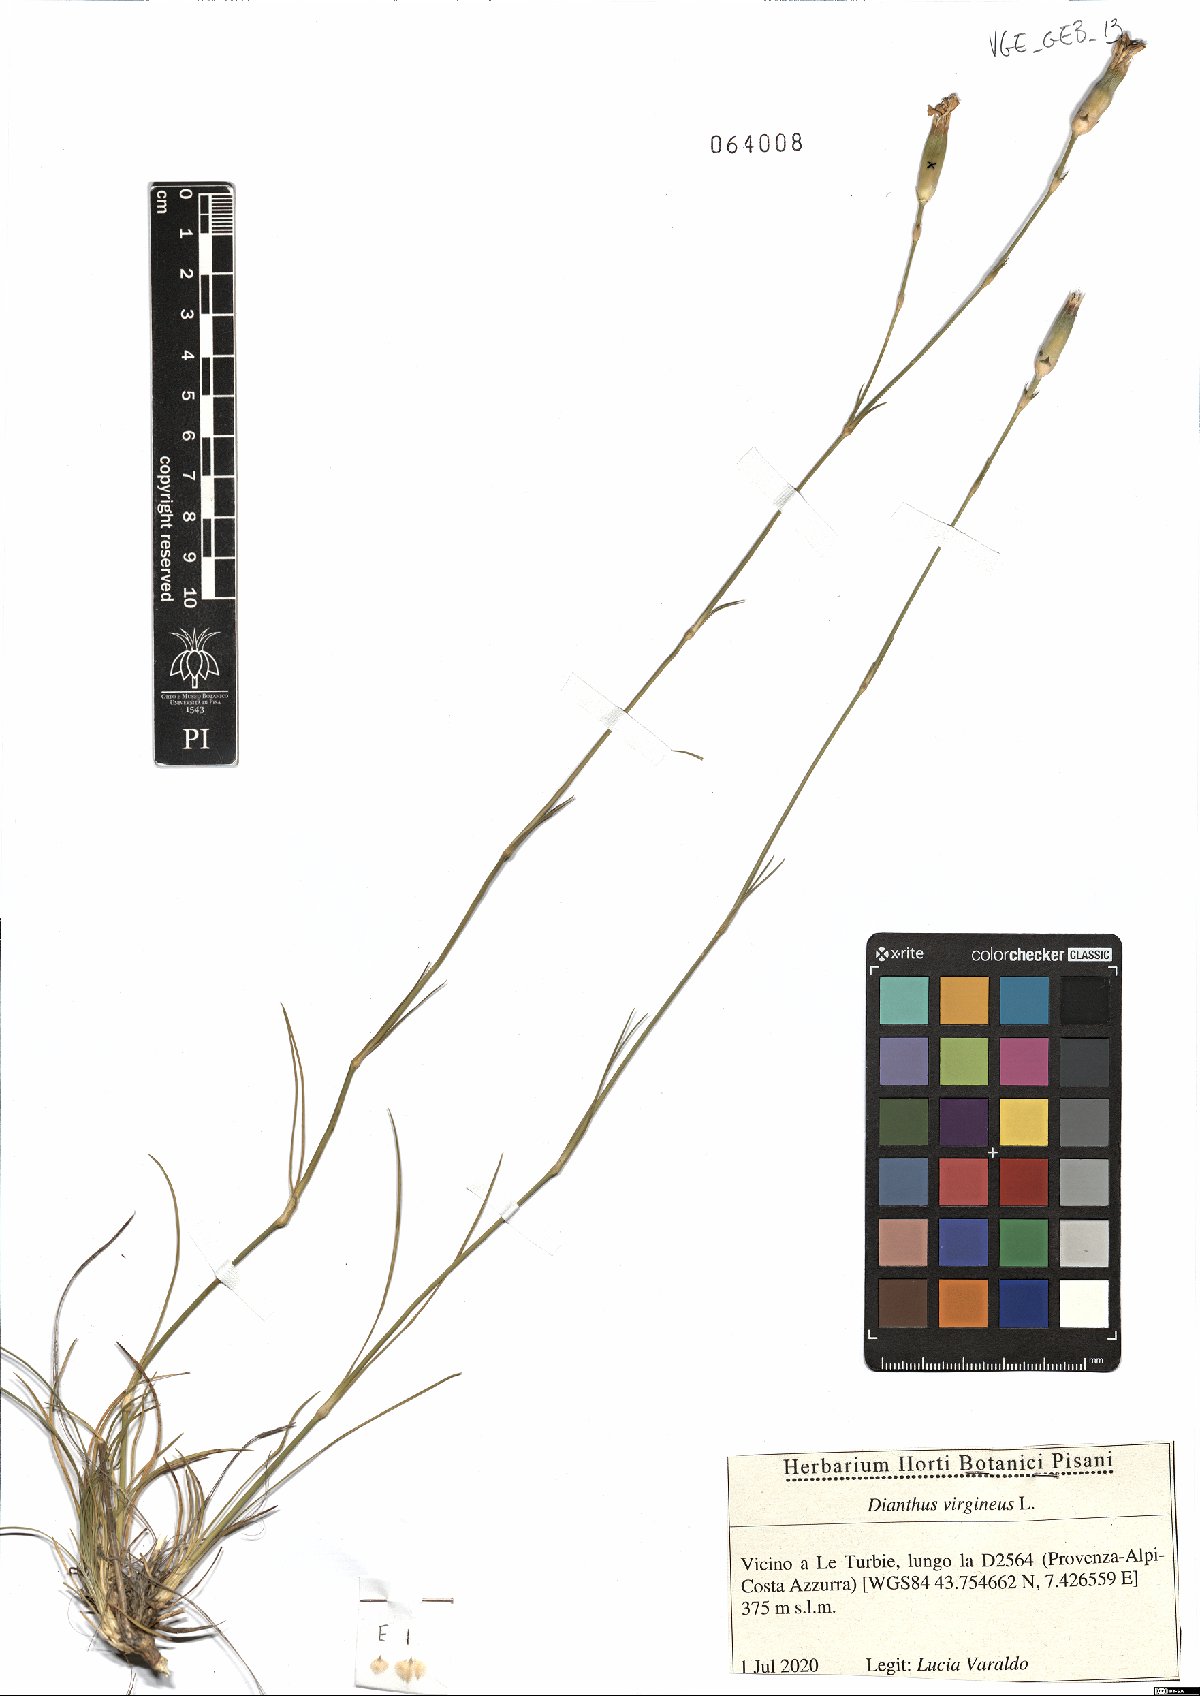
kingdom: Plantae
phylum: Tracheophyta
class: Magnoliopsida
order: Caryophyllales
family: Caryophyllaceae
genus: Dianthus
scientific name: Dianthus virgineus
